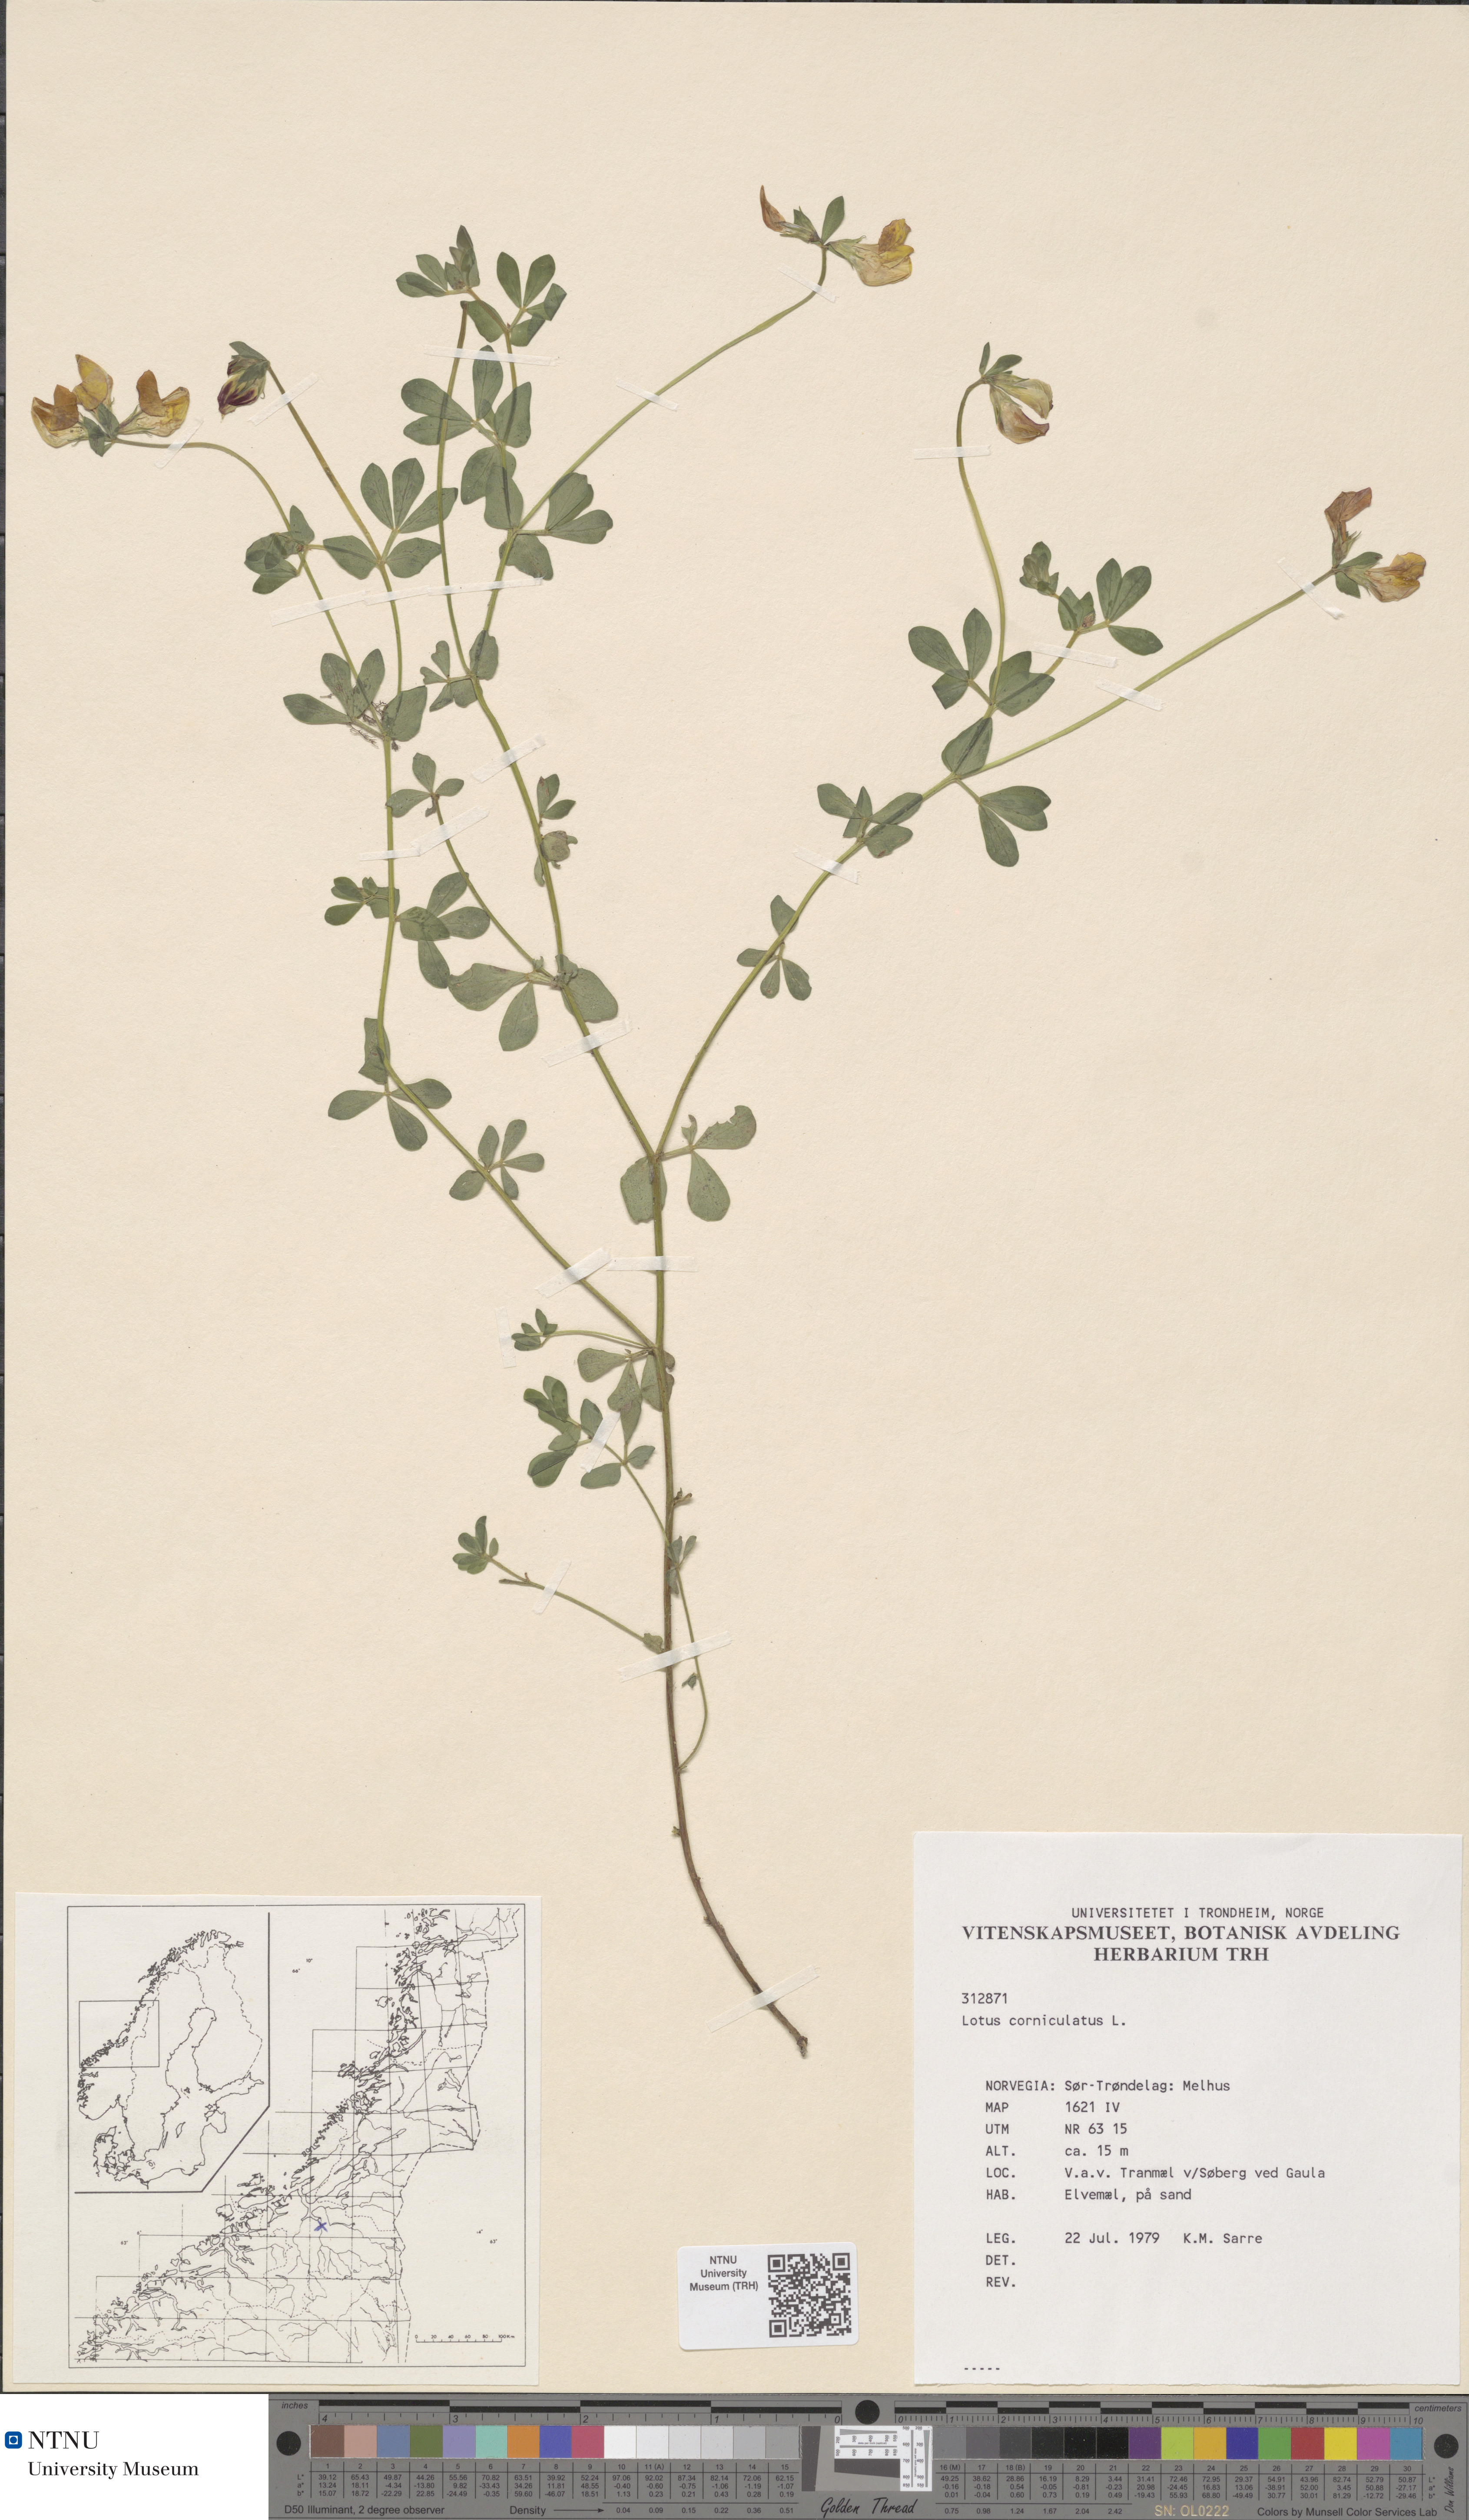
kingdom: Plantae
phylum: Tracheophyta
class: Magnoliopsida
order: Fabales
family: Fabaceae
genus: Lotus
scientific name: Lotus corniculatus
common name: Common bird's-foot-trefoil
